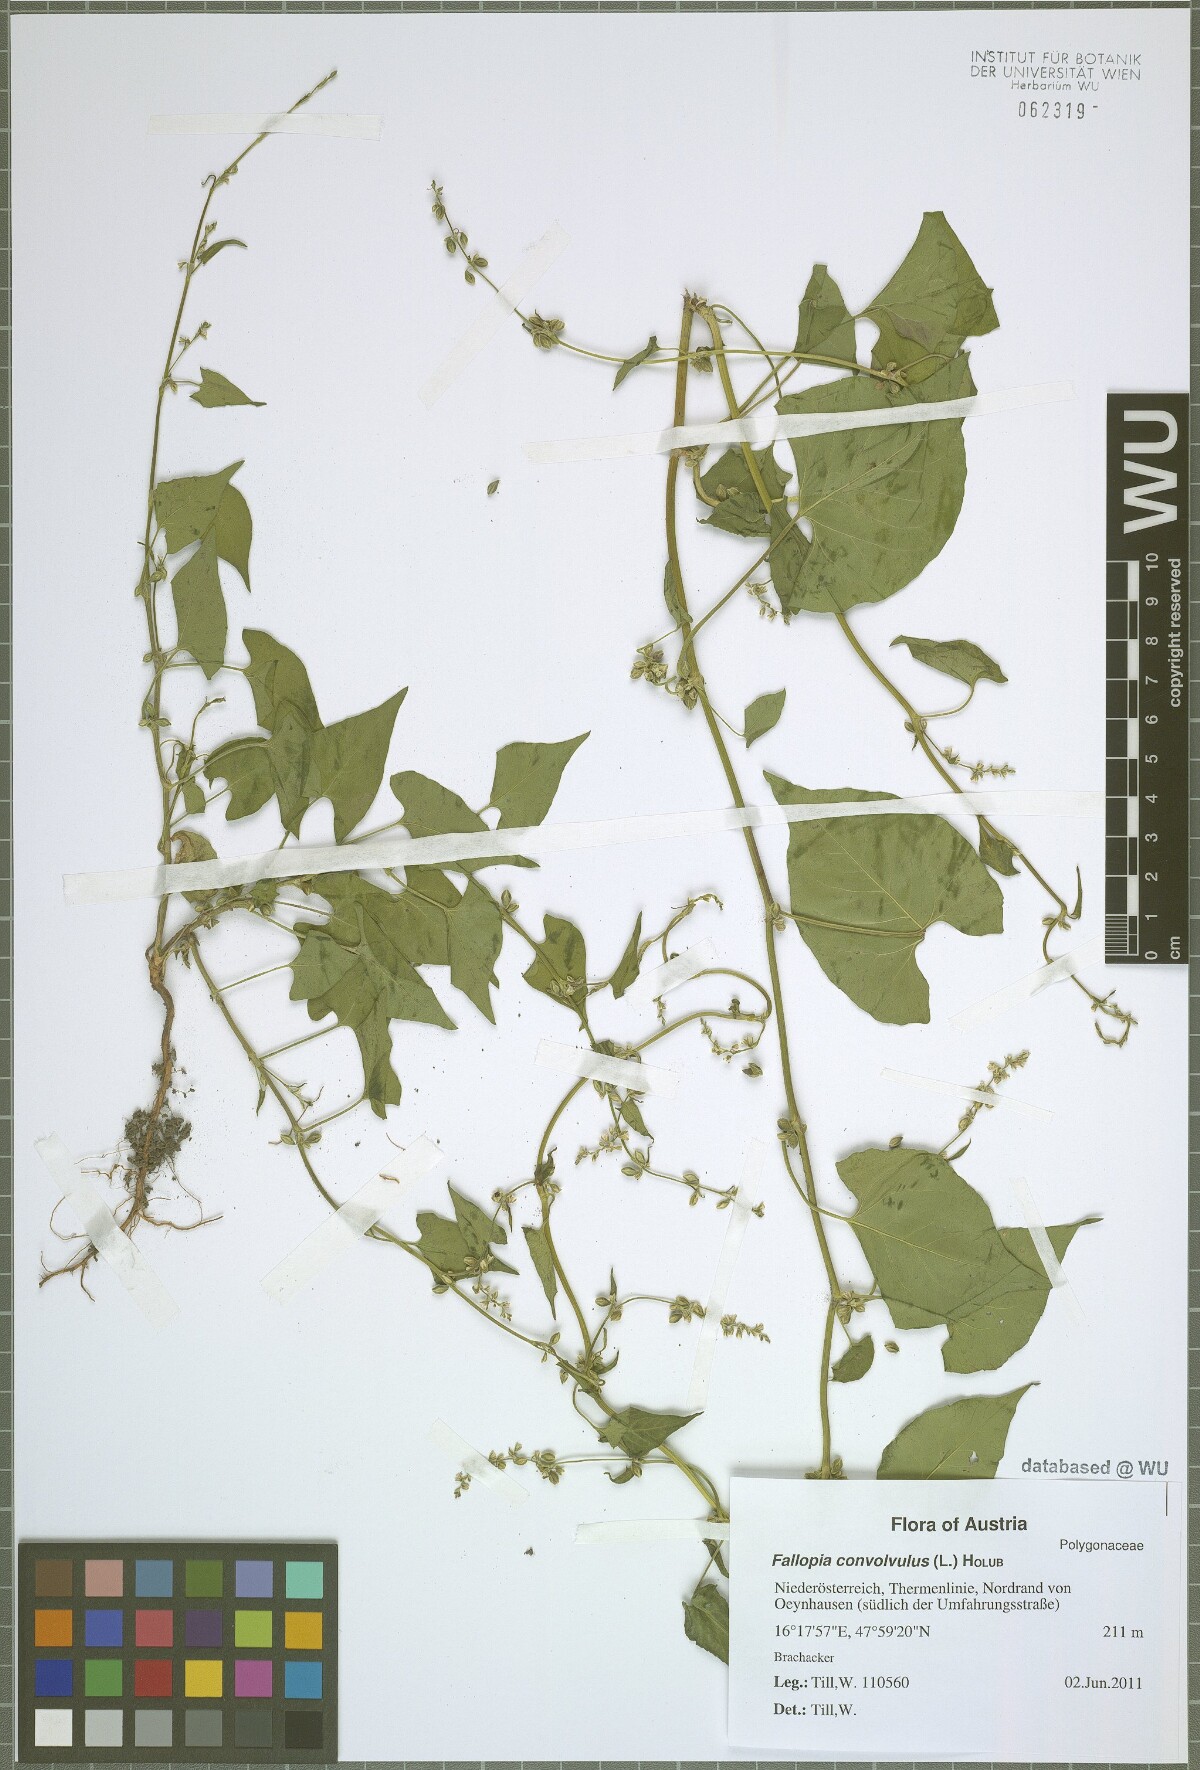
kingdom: Plantae
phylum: Tracheophyta
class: Magnoliopsida
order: Caryophyllales
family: Polygonaceae
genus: Fallopia
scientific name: Fallopia convolvulus
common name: Black bindweed
